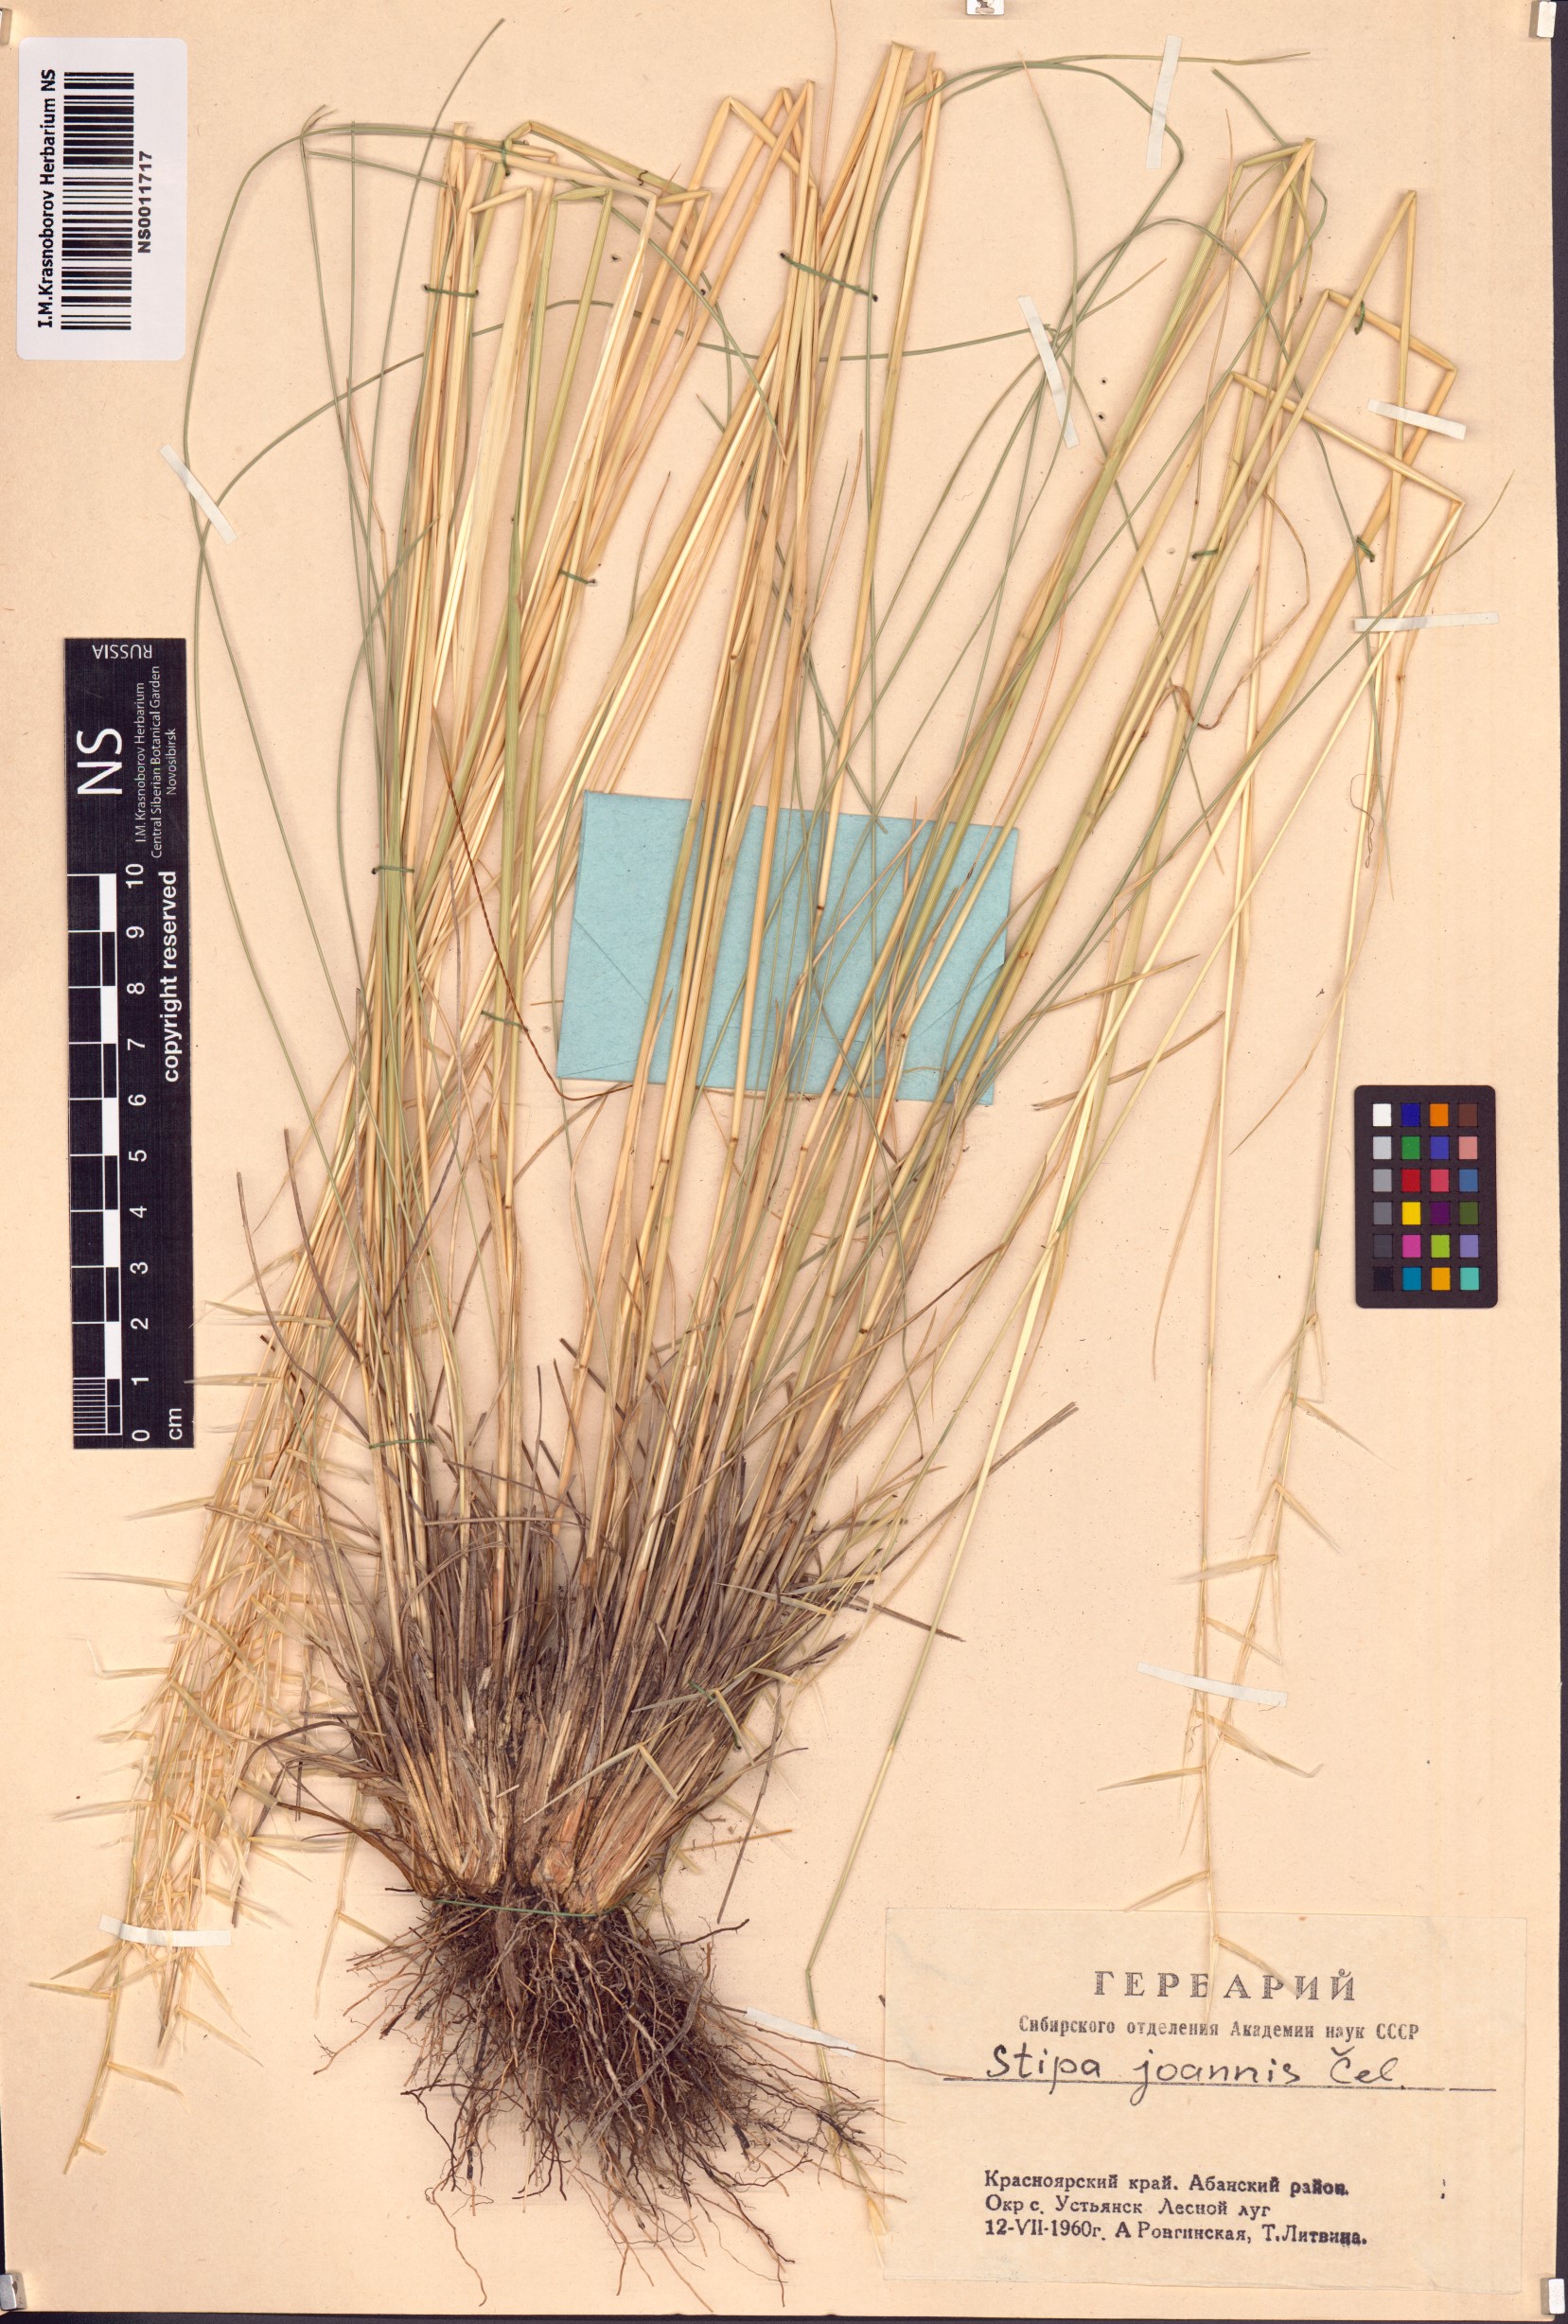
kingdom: Plantae
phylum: Tracheophyta
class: Liliopsida
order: Poales
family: Poaceae
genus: Stipa
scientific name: Stipa pennata
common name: European feather grass
